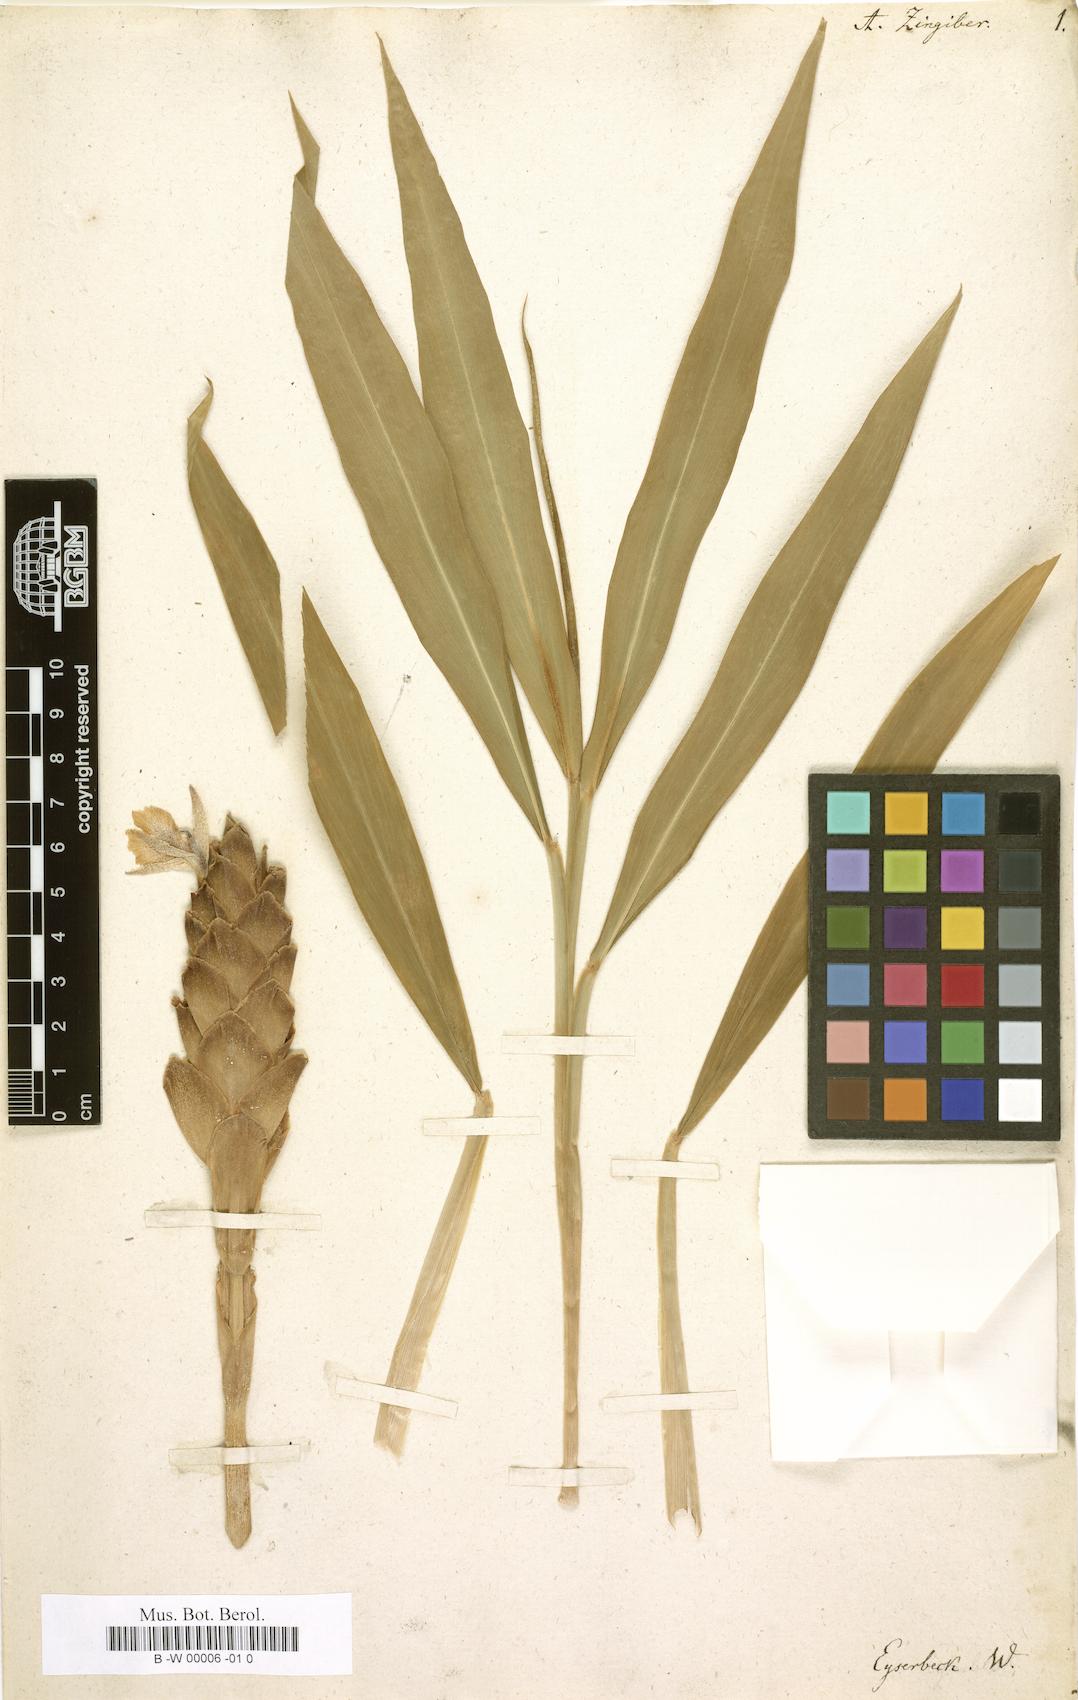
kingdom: Plantae
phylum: Tracheophyta
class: Liliopsida
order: Zingiberales
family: Zingiberaceae
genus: Zingiber
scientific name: Zingiber officinale
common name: Ginger
